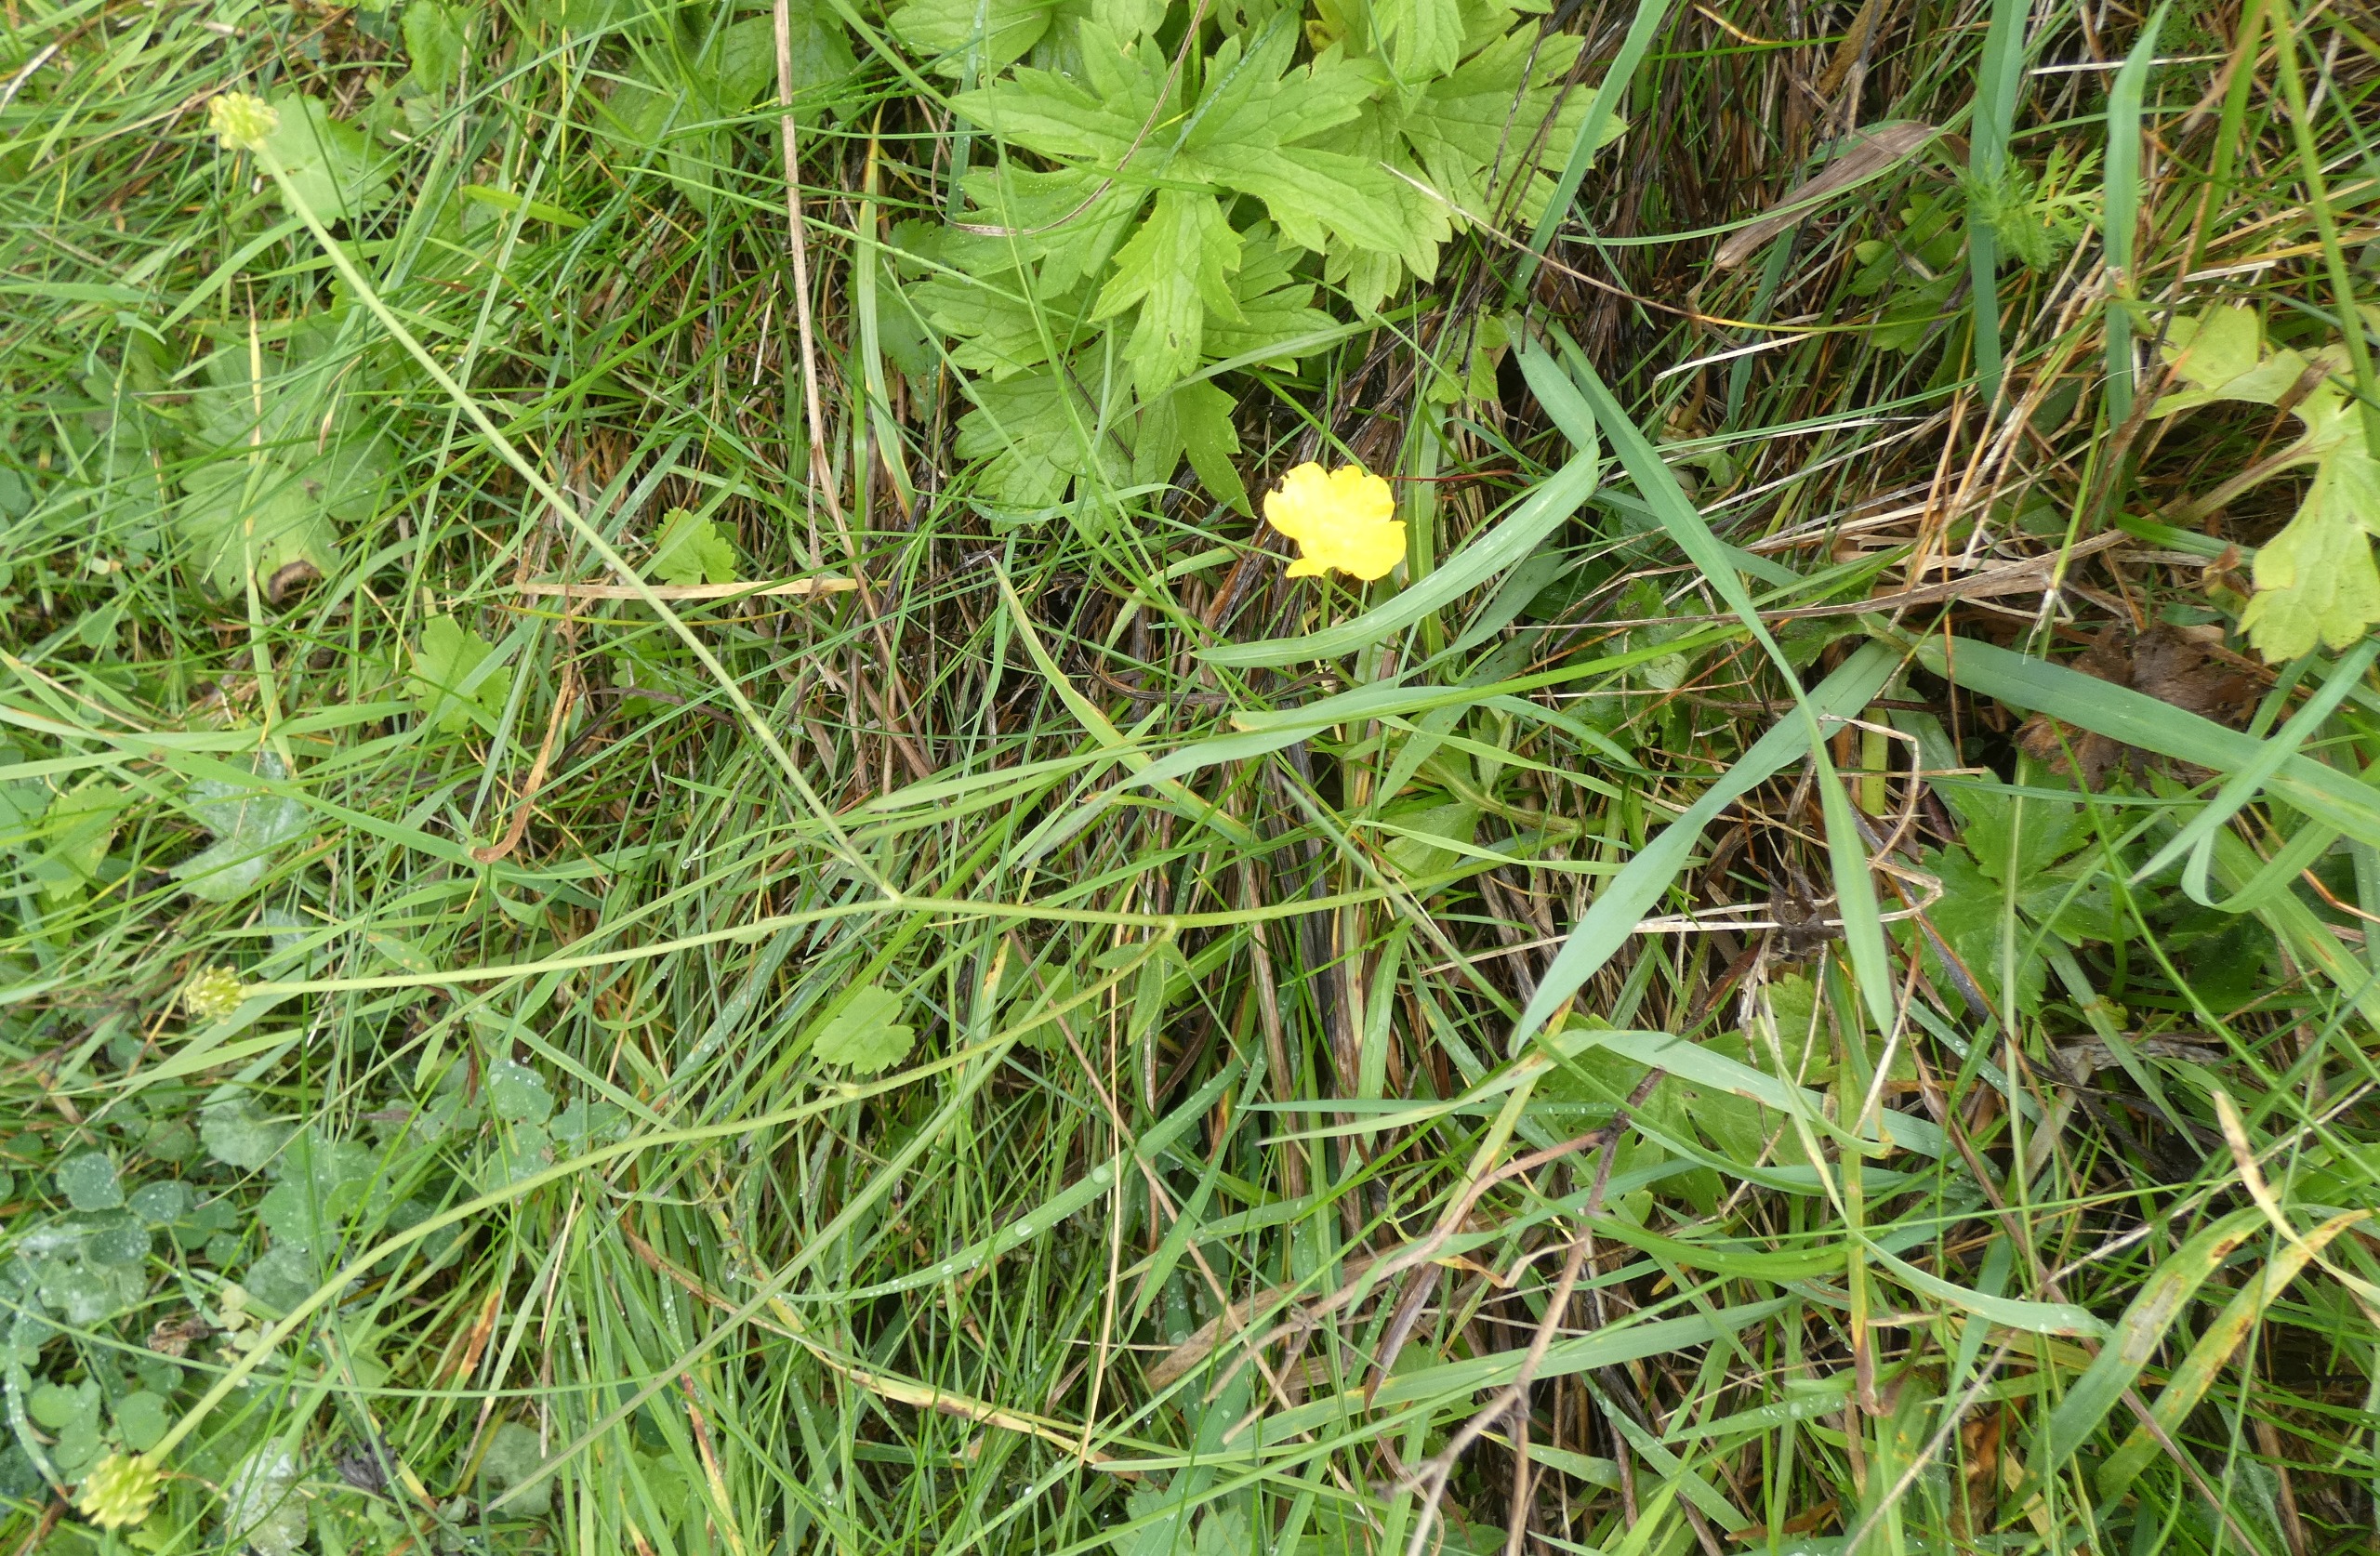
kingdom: Plantae
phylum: Tracheophyta
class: Magnoliopsida
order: Ranunculales
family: Ranunculaceae
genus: Ranunculus
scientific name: Ranunculus acris
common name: Bidende ranunkel
